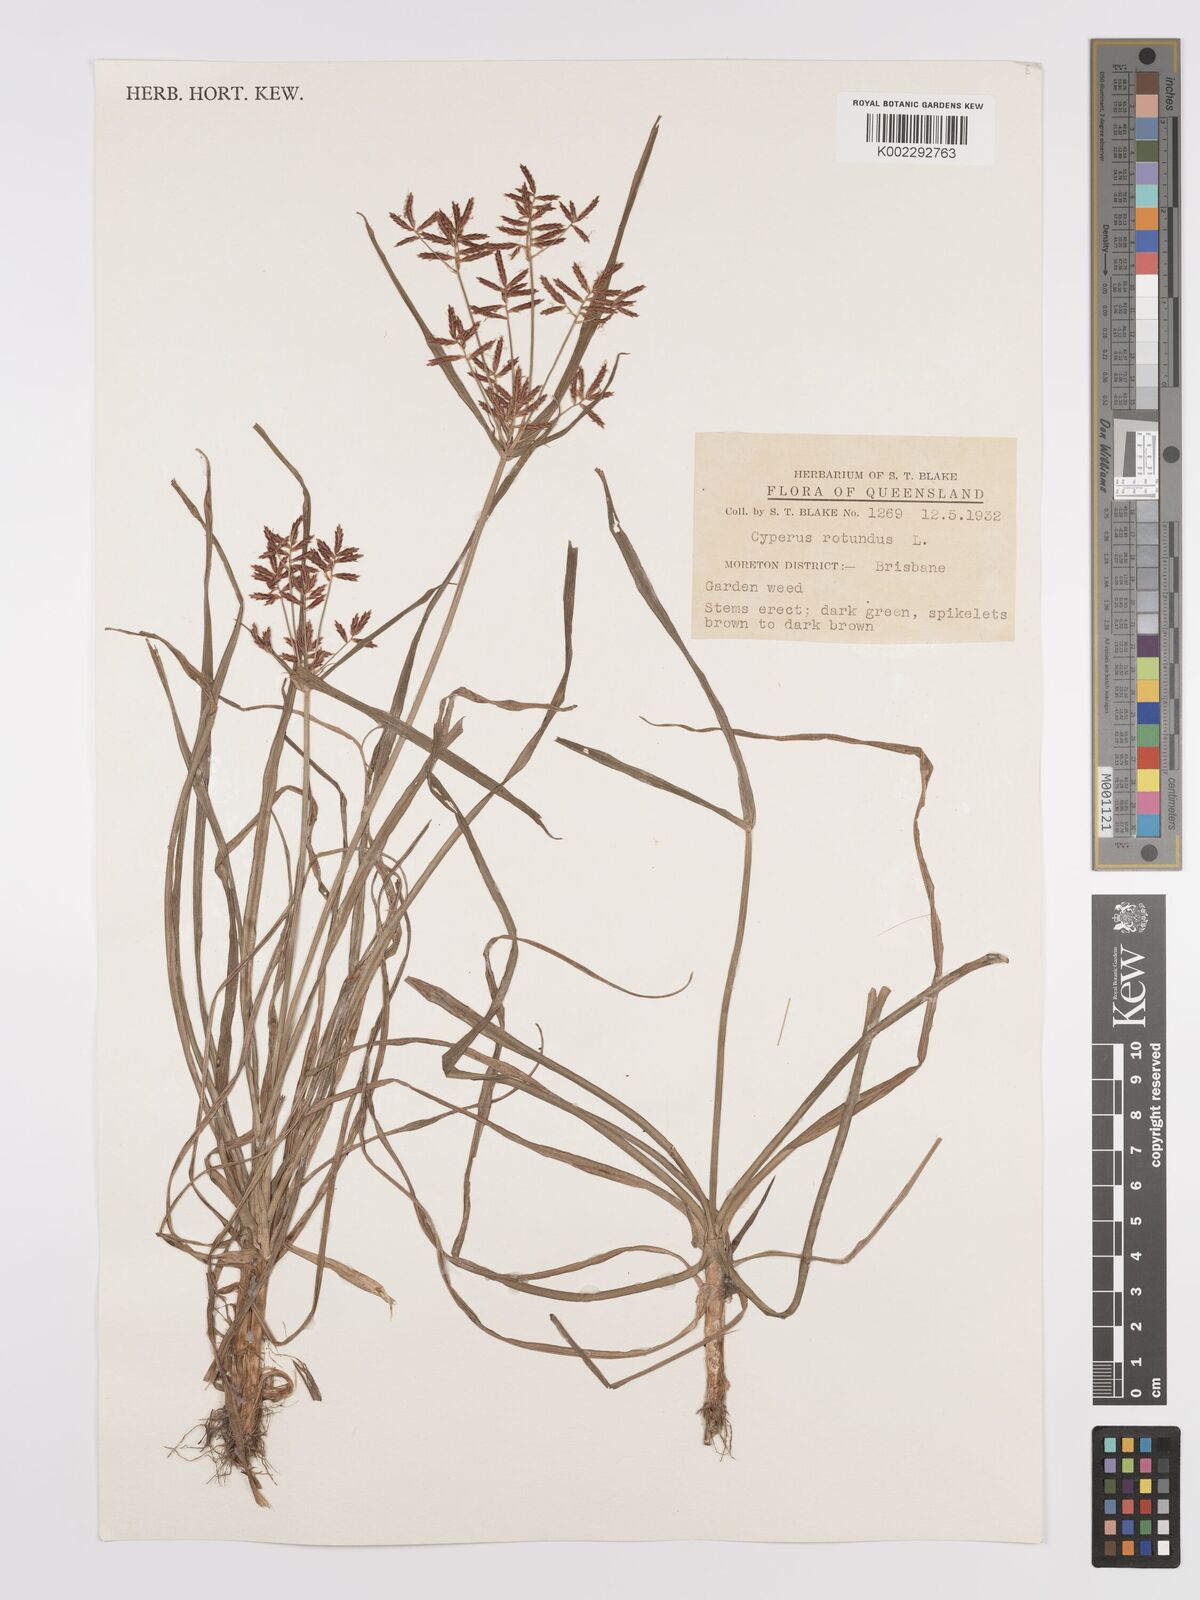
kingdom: Plantae
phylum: Tracheophyta
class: Liliopsida
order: Poales
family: Cyperaceae
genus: Cyperus
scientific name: Cyperus rotundus
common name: Nutgrass
